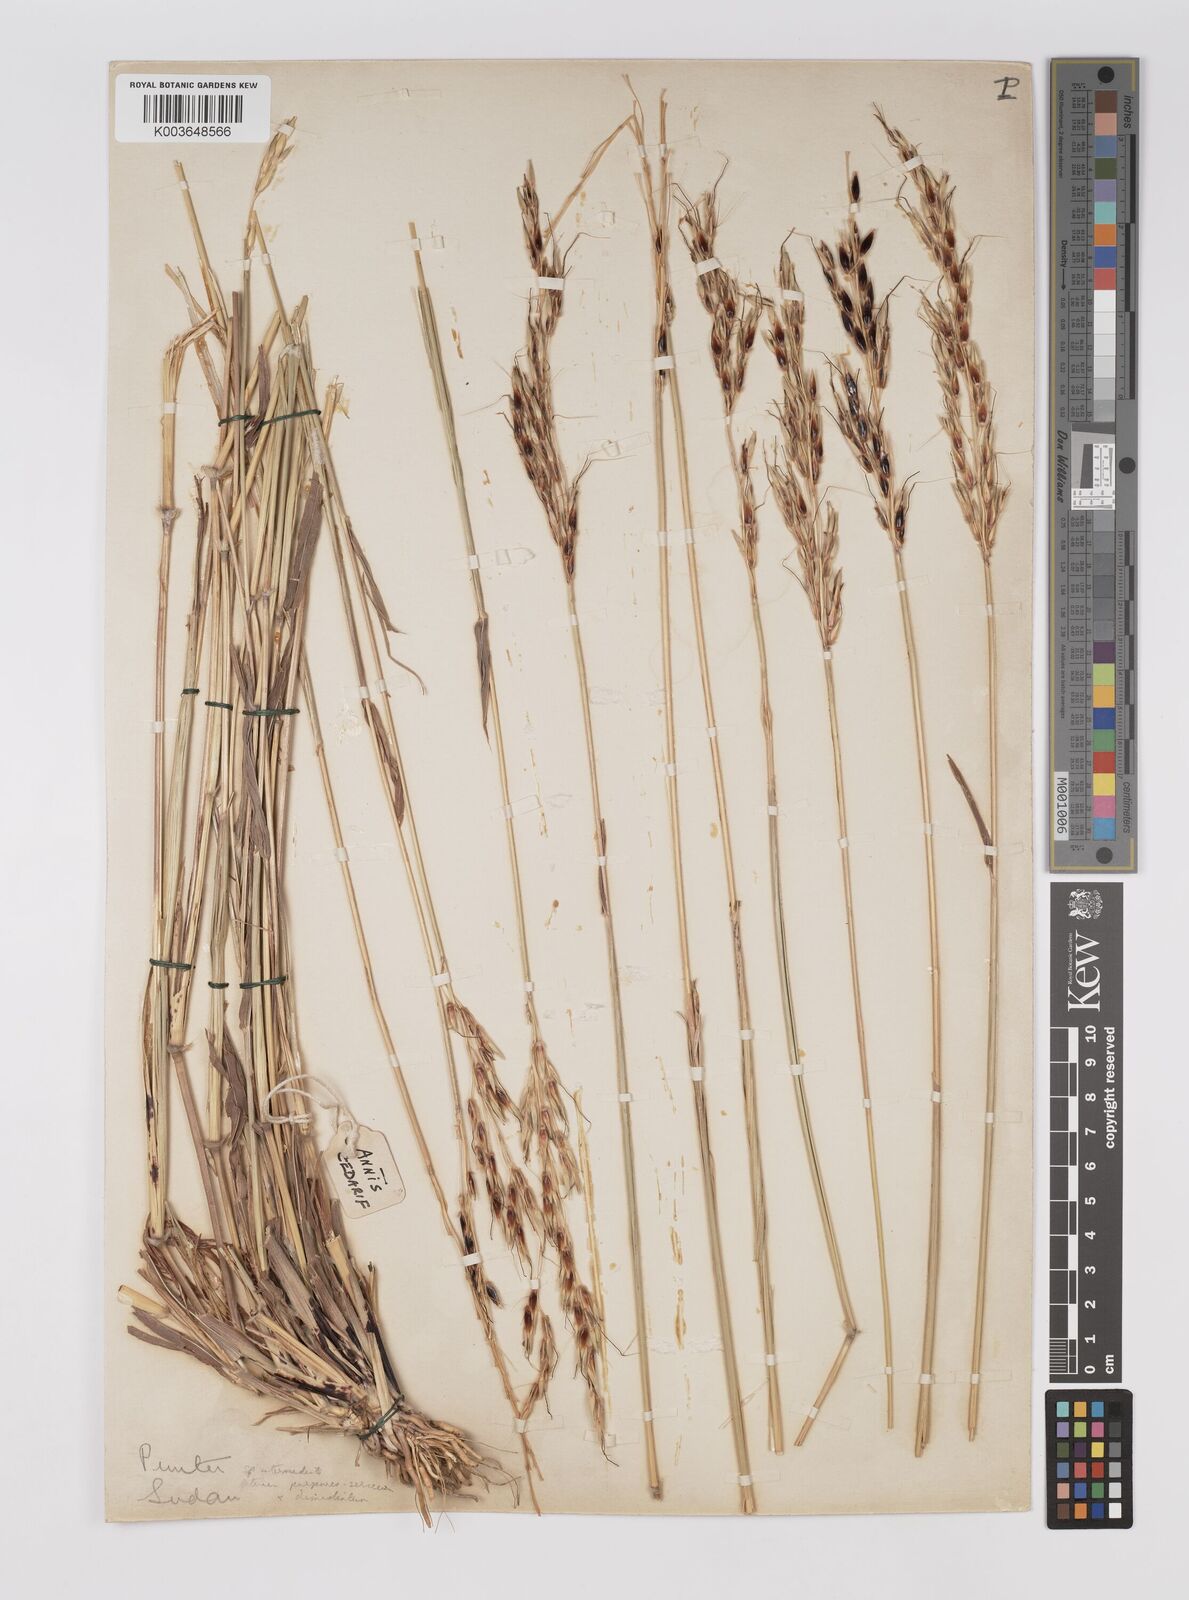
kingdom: Plantae
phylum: Tracheophyta
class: Liliopsida
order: Poales
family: Poaceae
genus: Sarga
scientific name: Sarga purpureosericea
